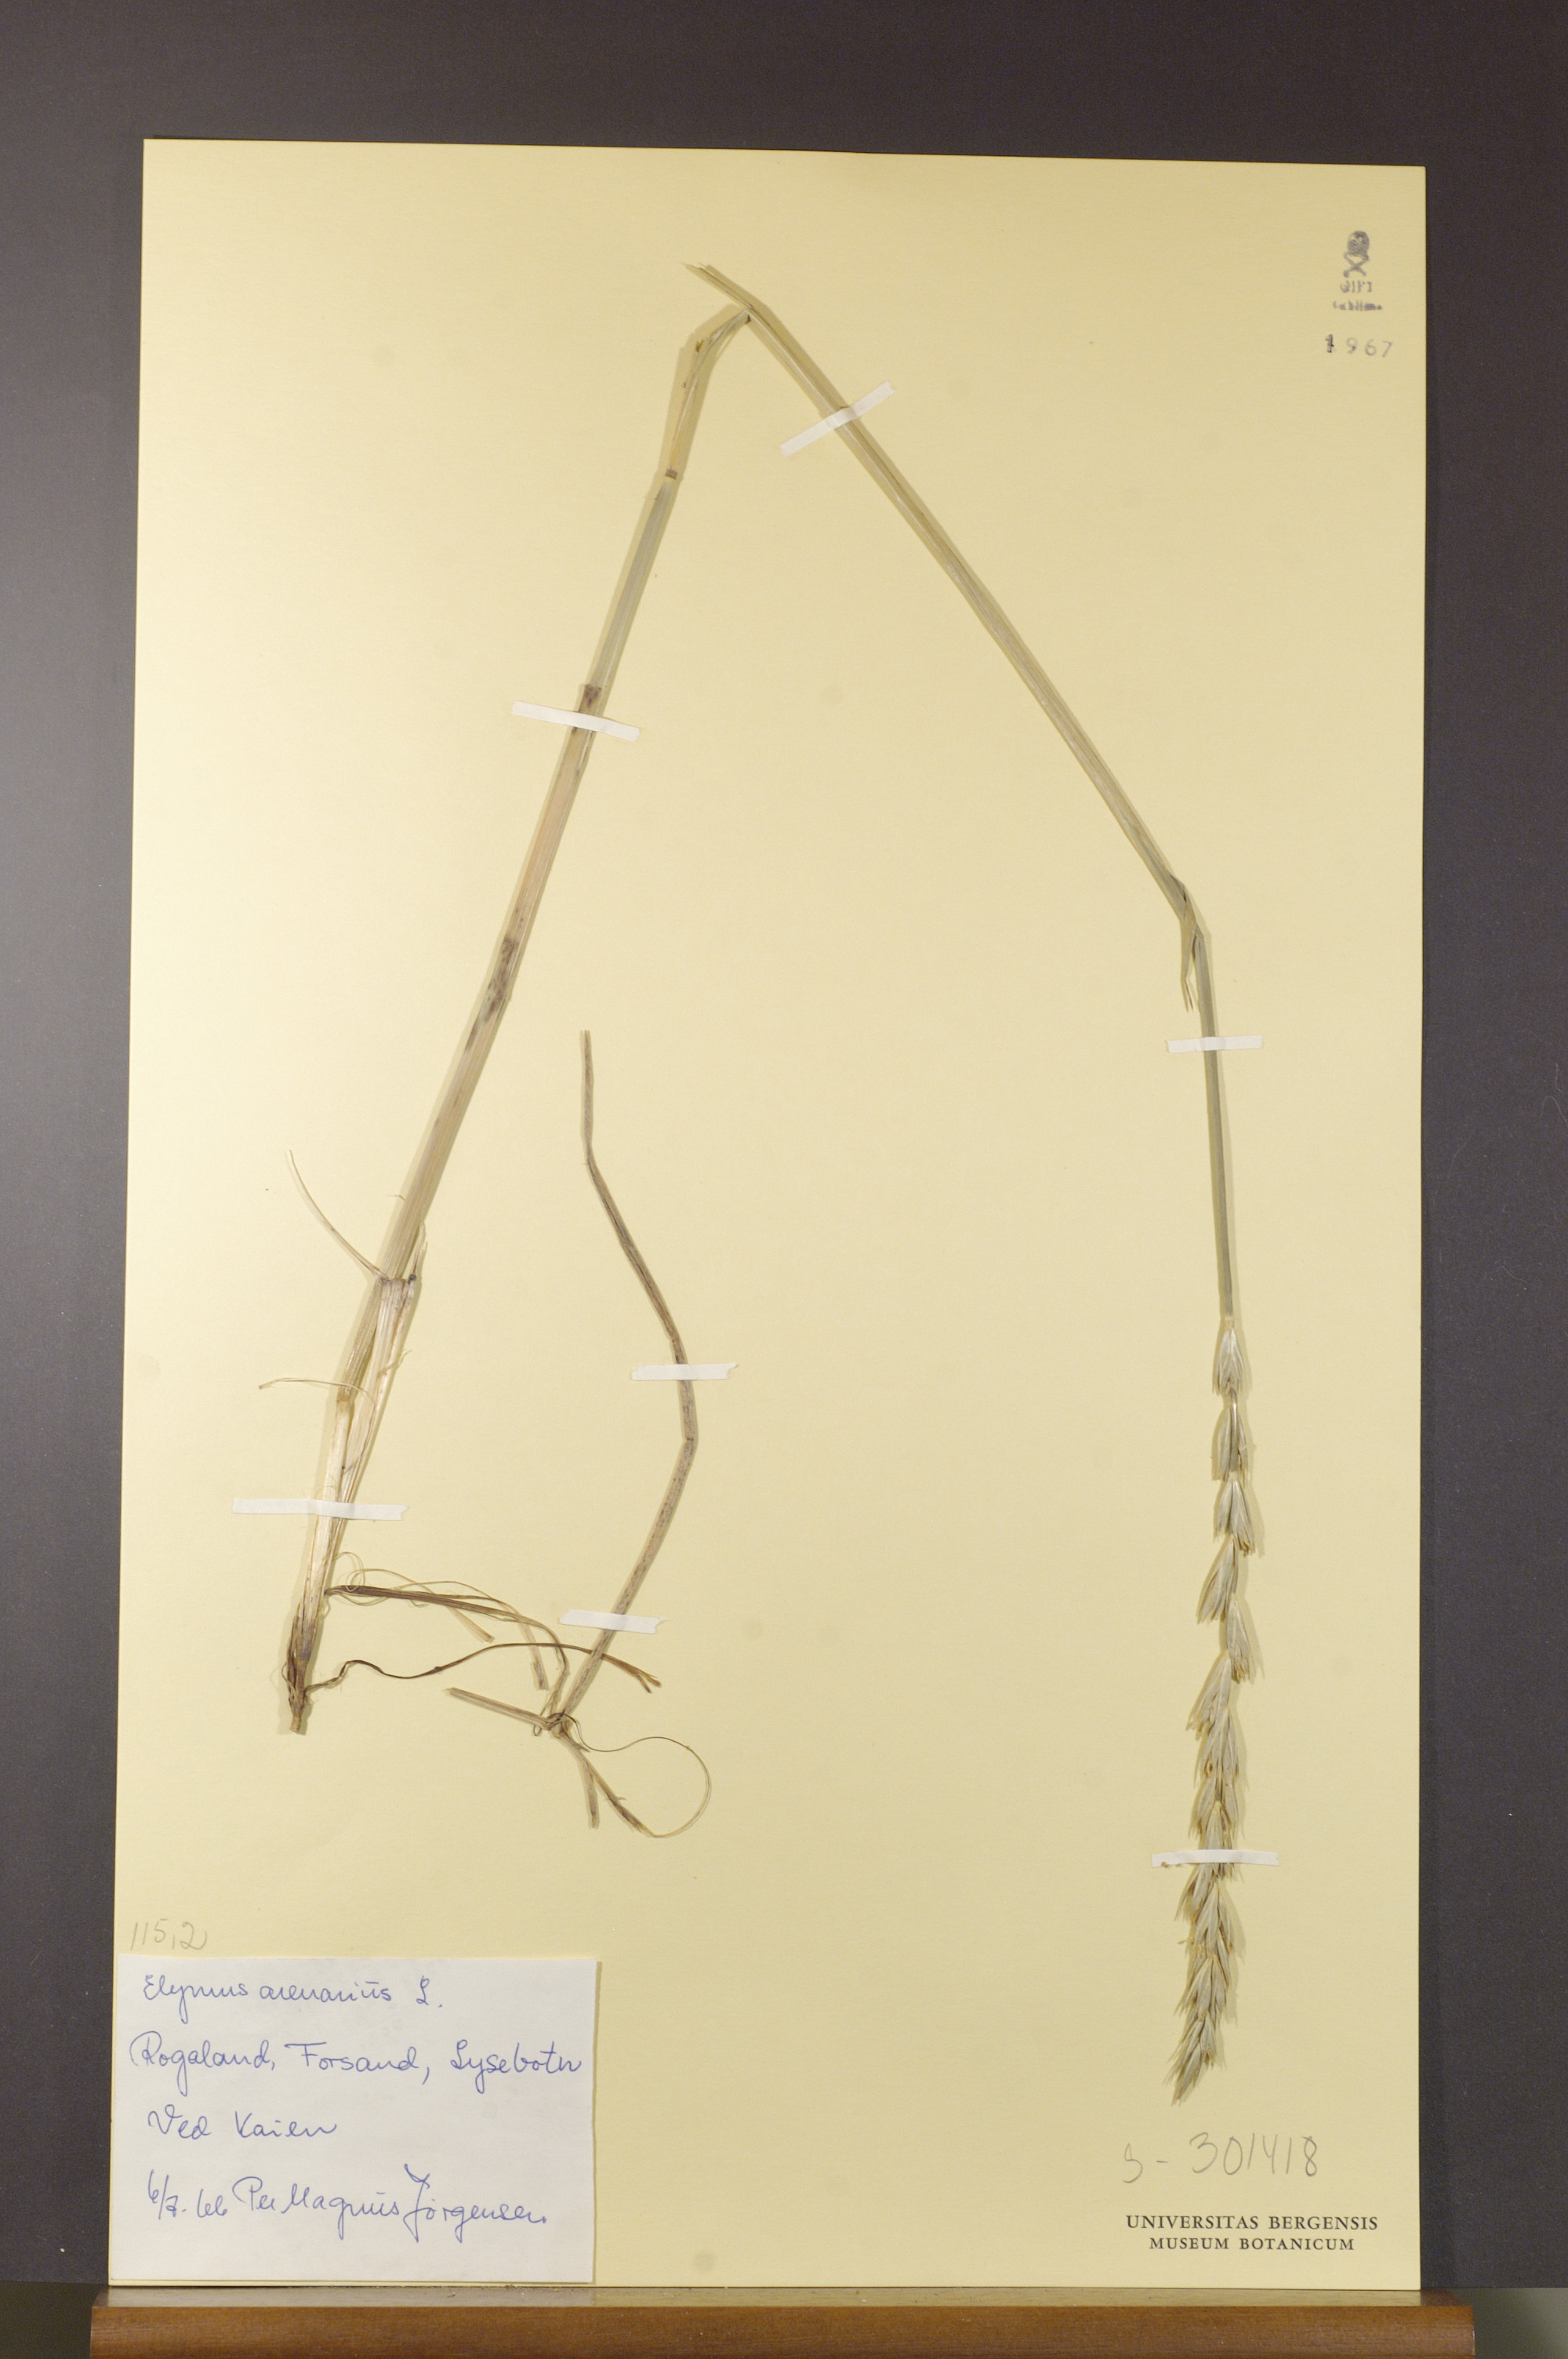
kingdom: Plantae
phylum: Tracheophyta
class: Liliopsida
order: Poales
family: Poaceae
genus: Leymus
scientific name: Leymus arenarius
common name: Lyme-grass
